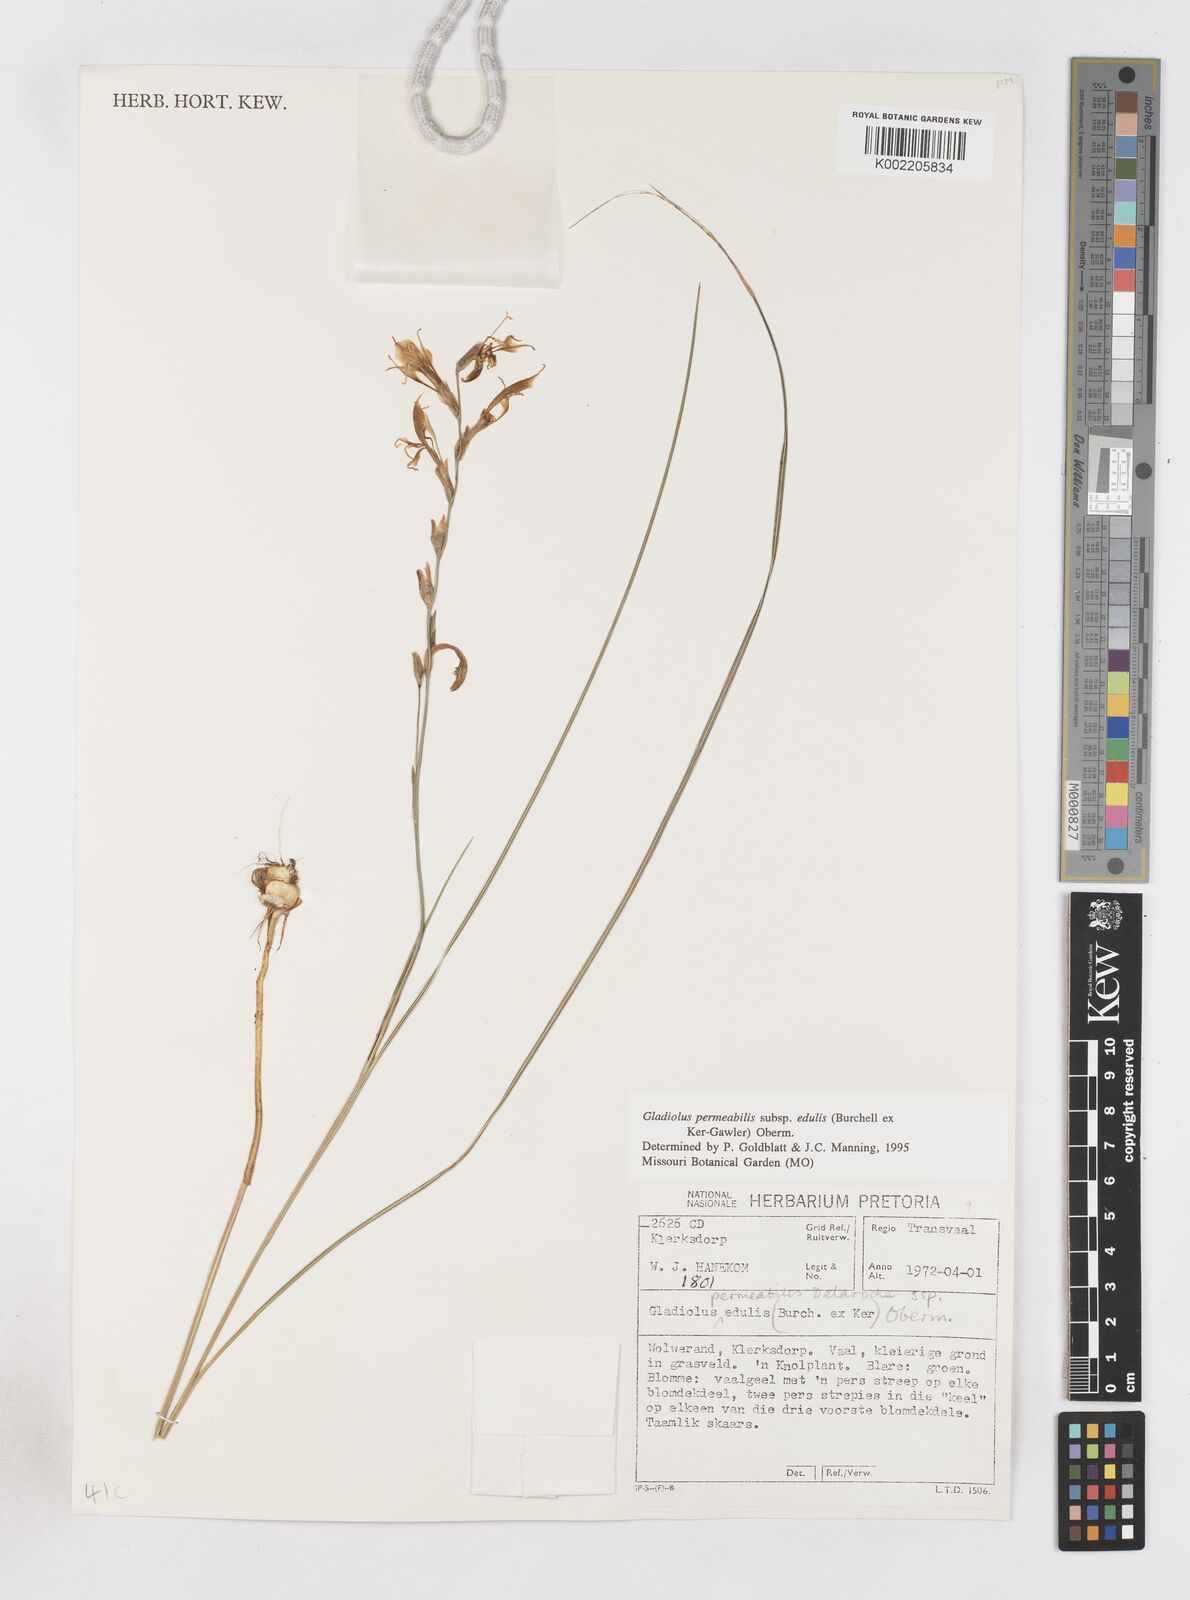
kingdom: Plantae
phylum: Tracheophyta
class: Liliopsida
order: Asparagales
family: Iridaceae
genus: Gladiolus
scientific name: Gladiolus permeabilis
